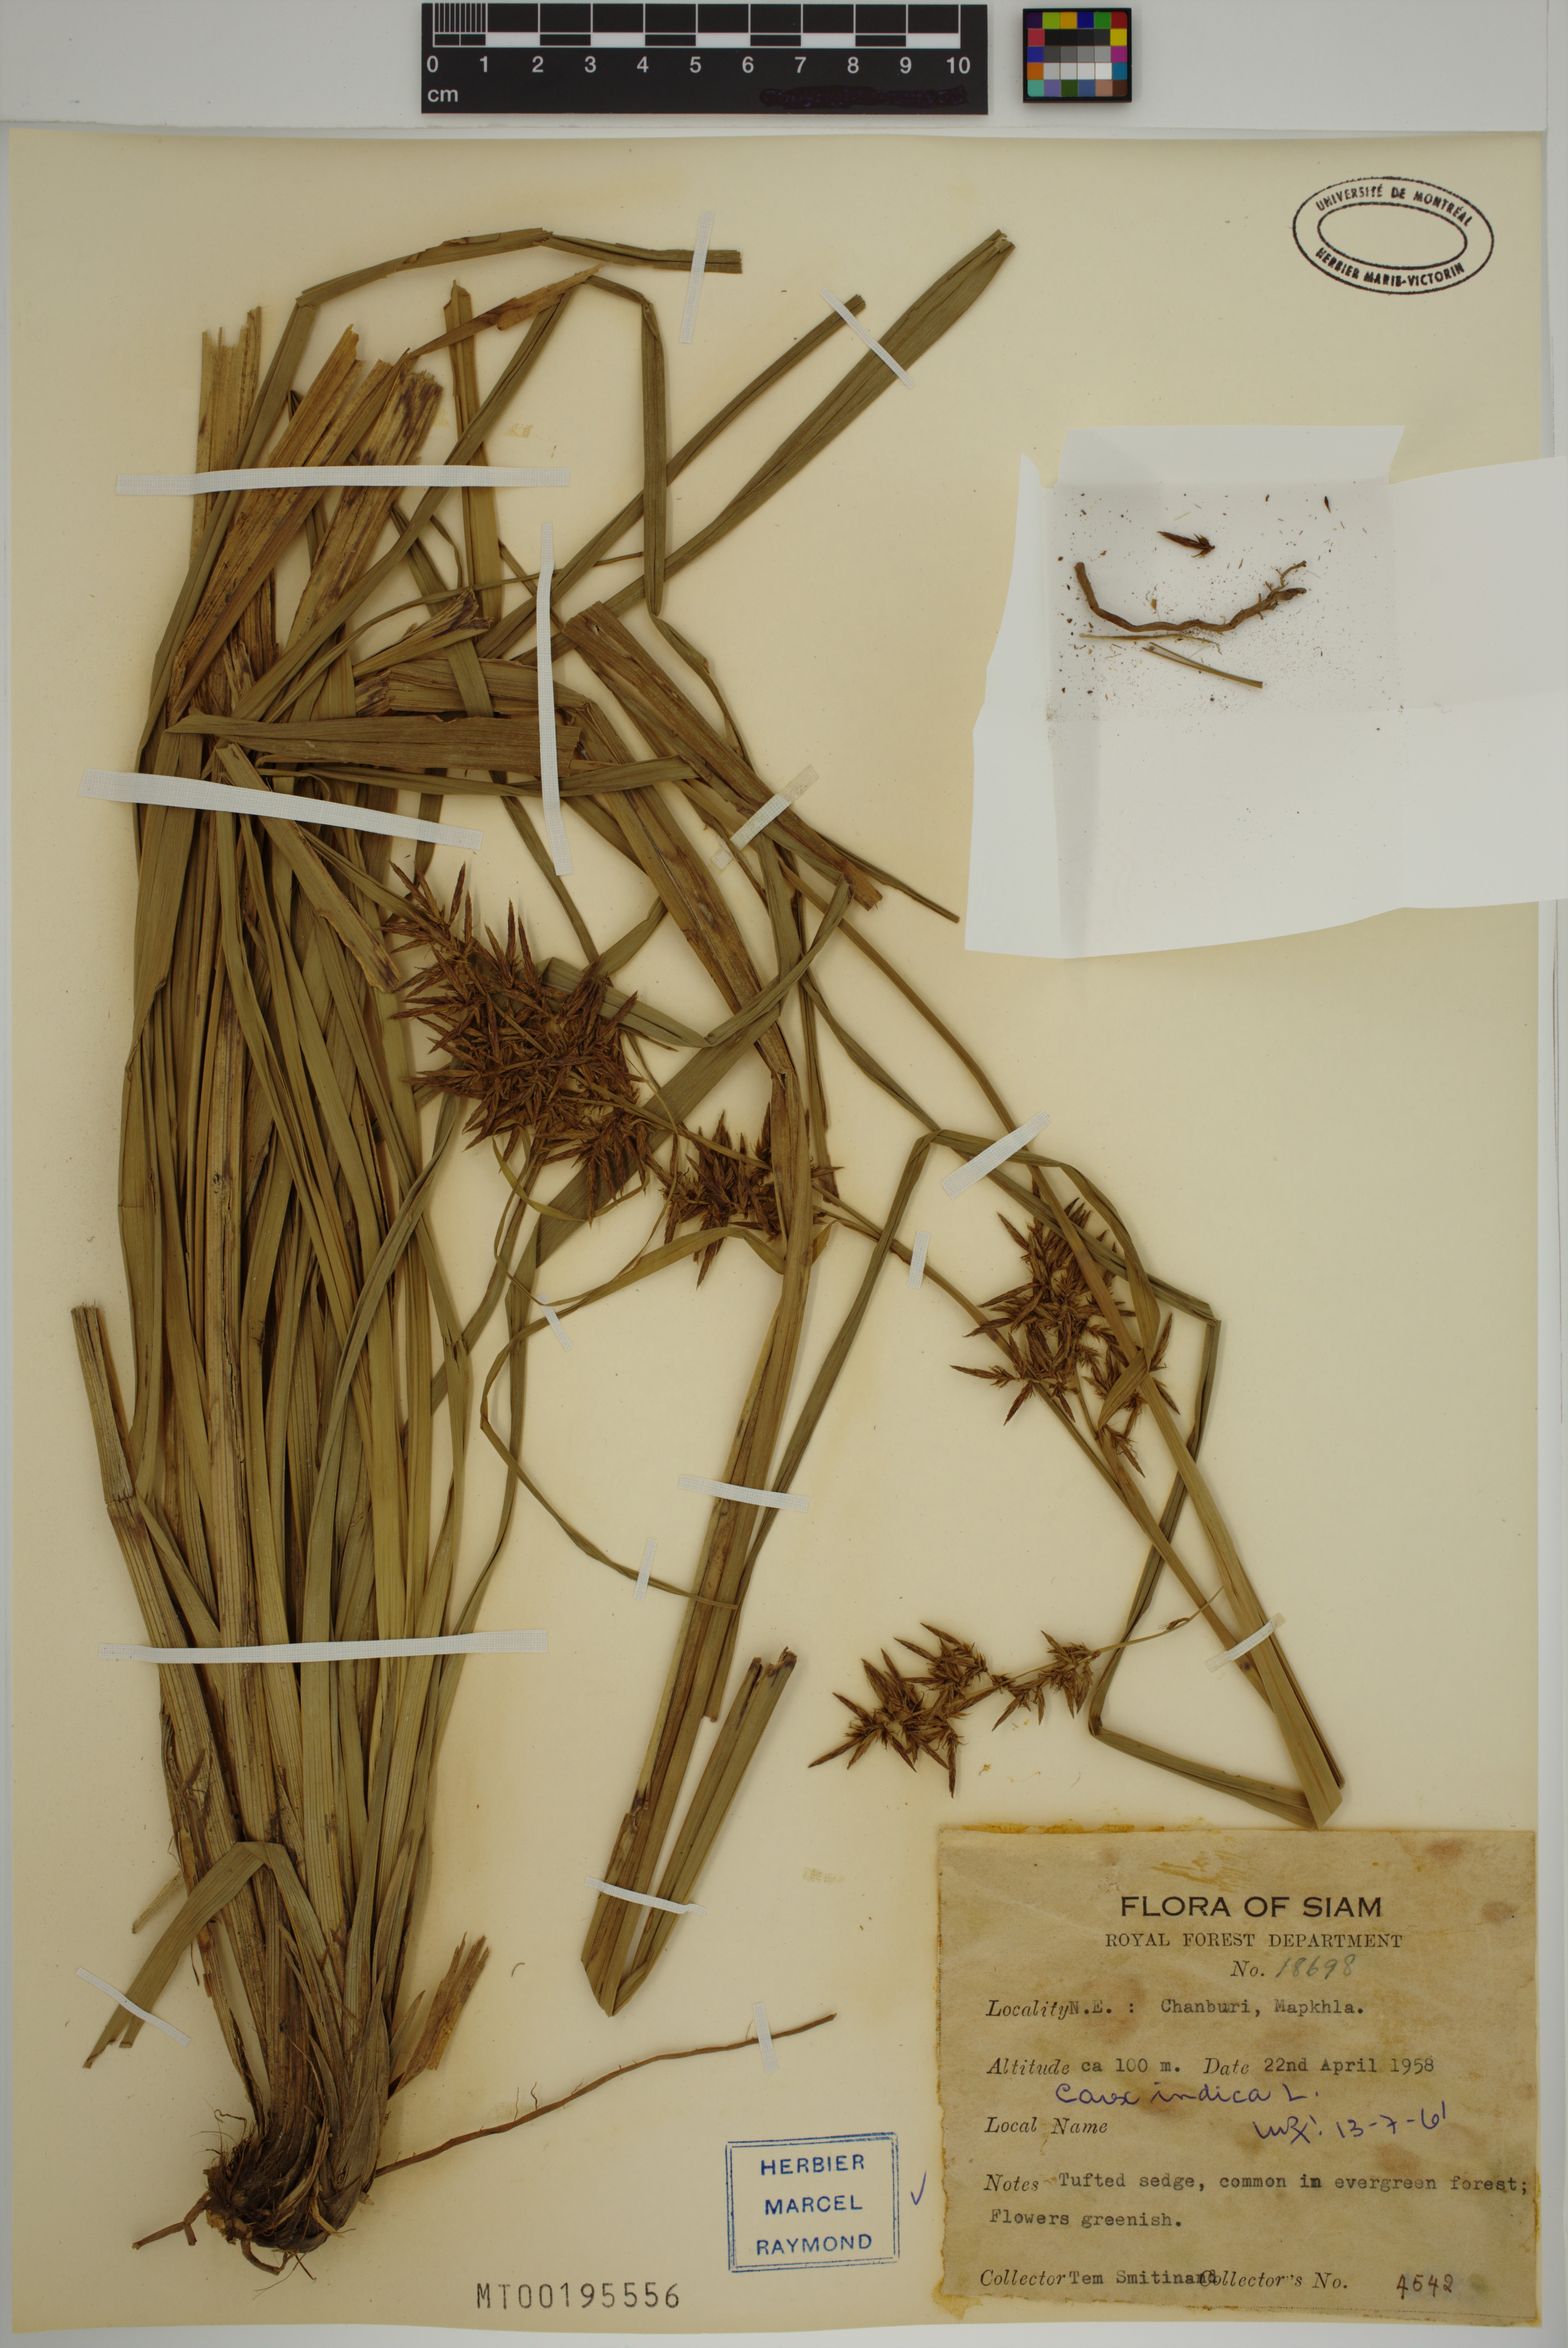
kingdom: Plantae
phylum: Tracheophyta
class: Liliopsida
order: Poales
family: Cyperaceae
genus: Carex
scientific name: Carex indica
